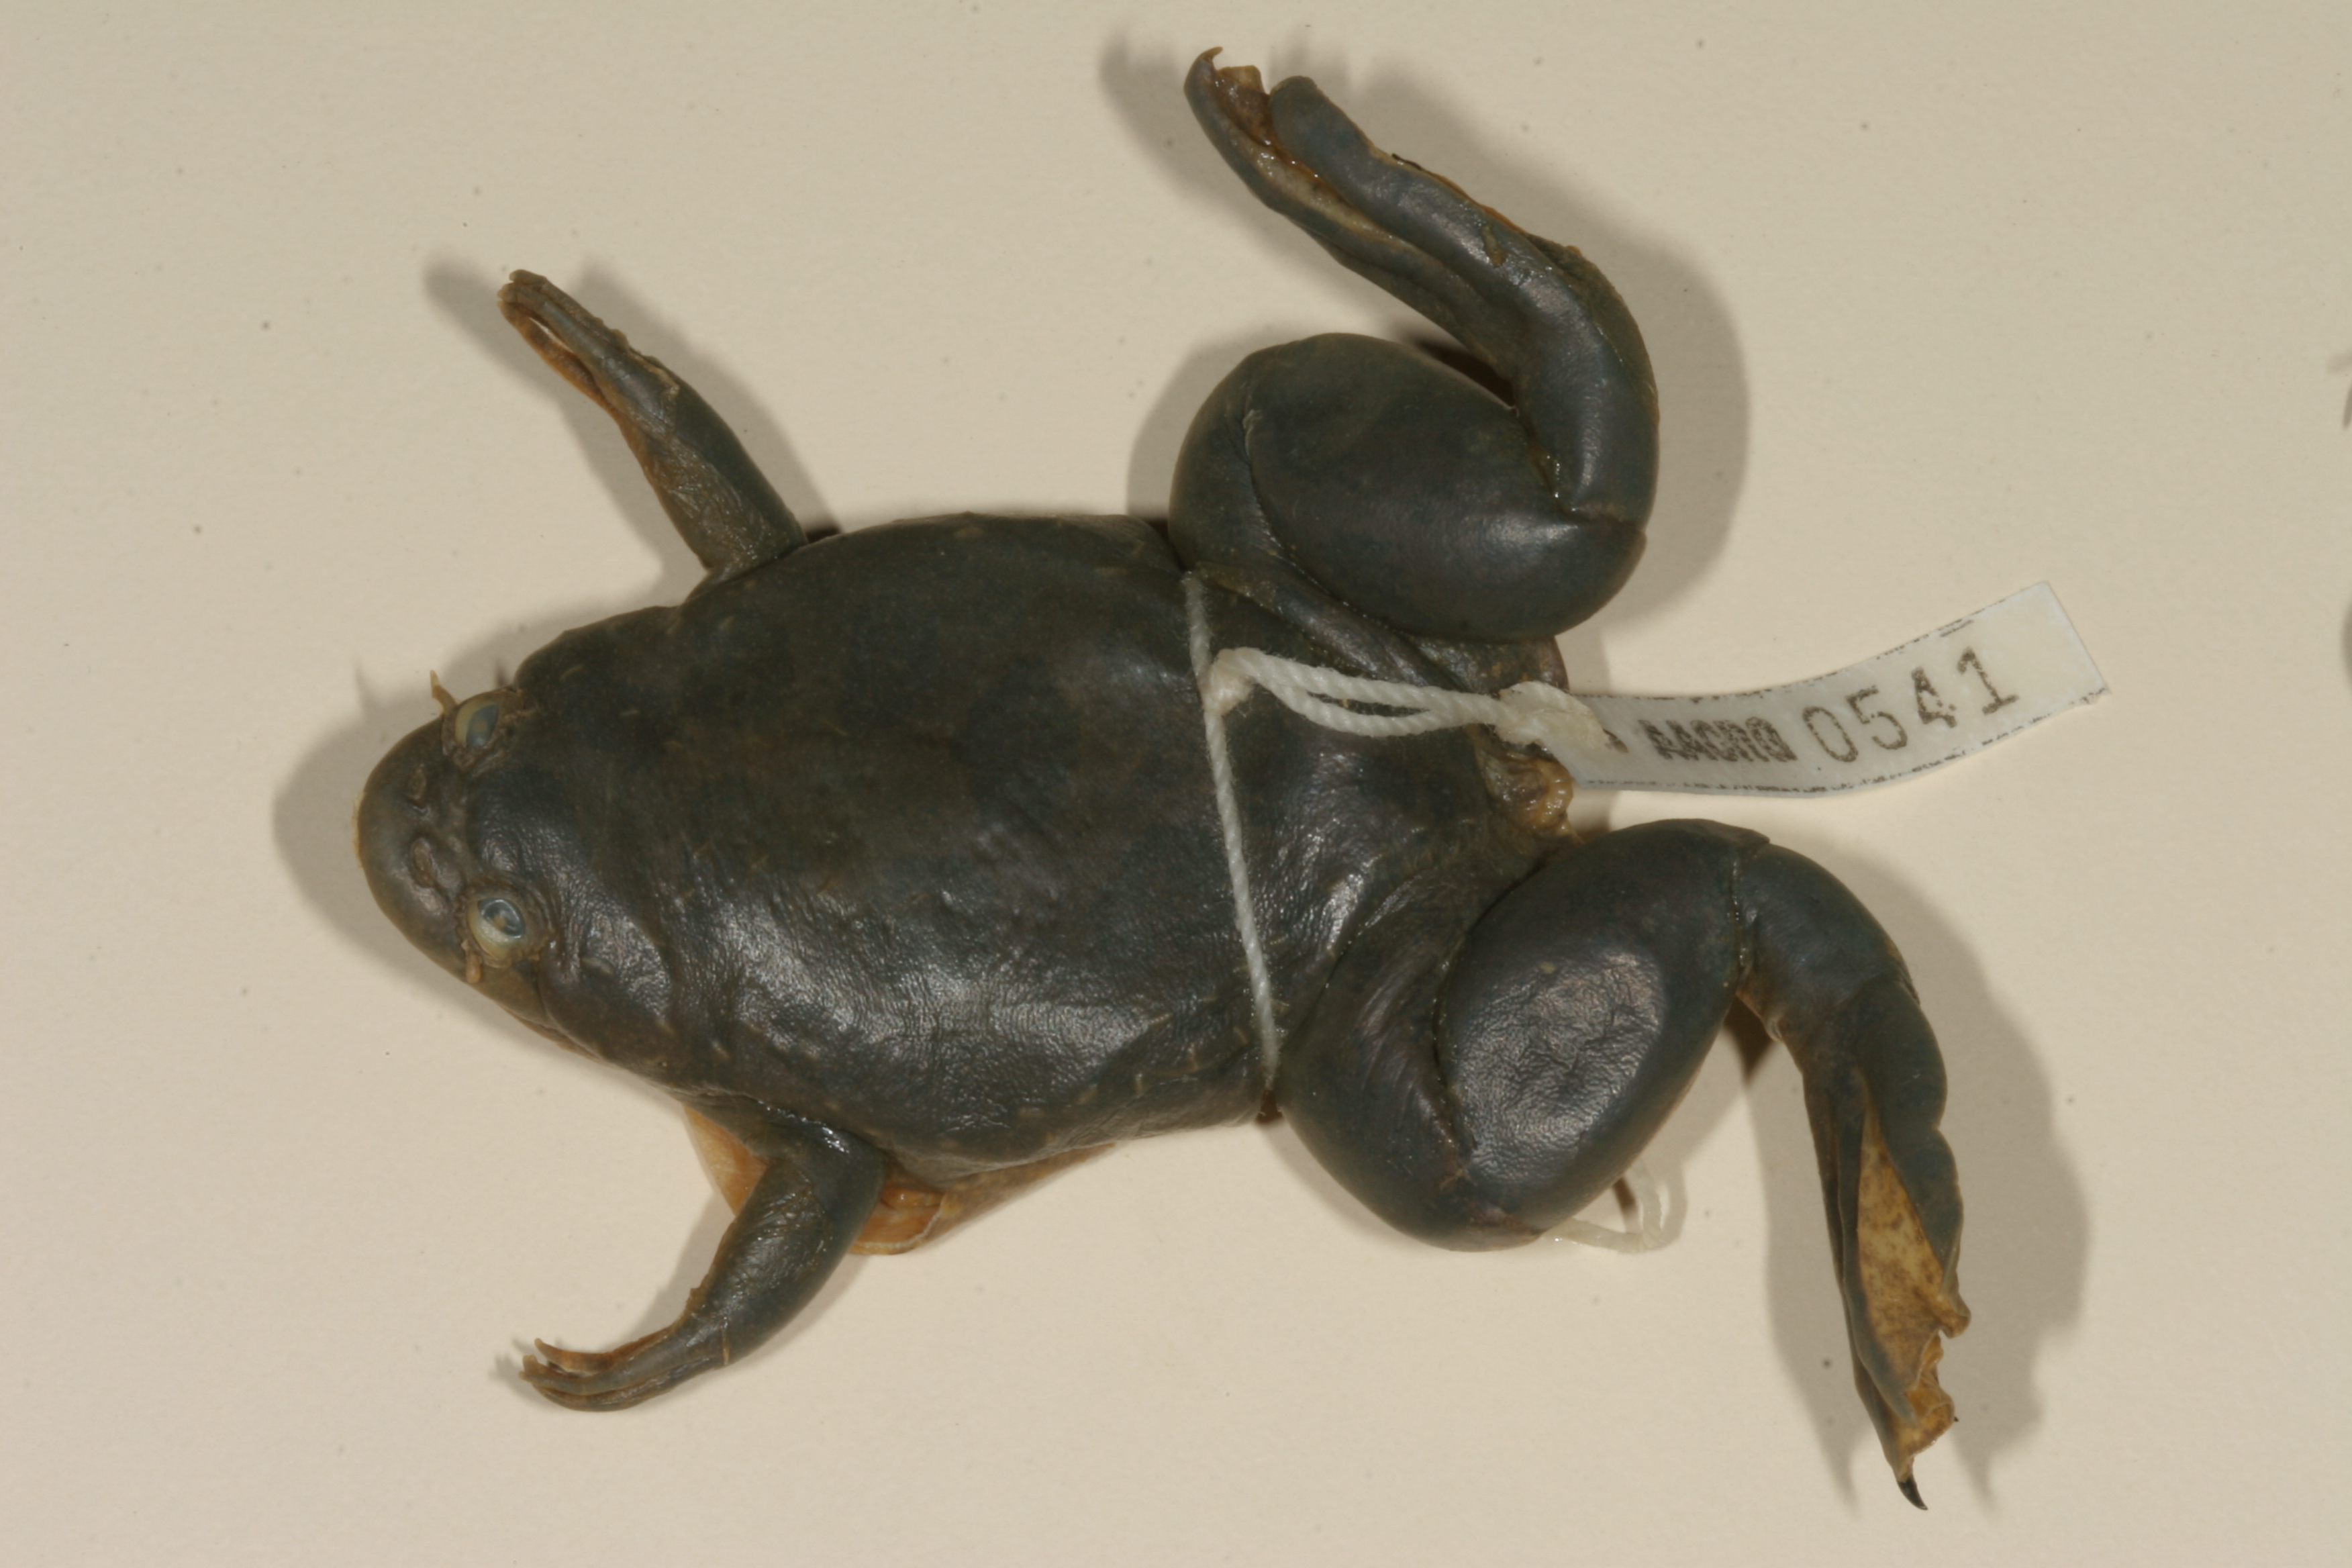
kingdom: Animalia
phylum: Chordata
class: Amphibia
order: Anura
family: Pipidae
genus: Xenopus
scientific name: Xenopus muelleri
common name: Muller's clawed frog
